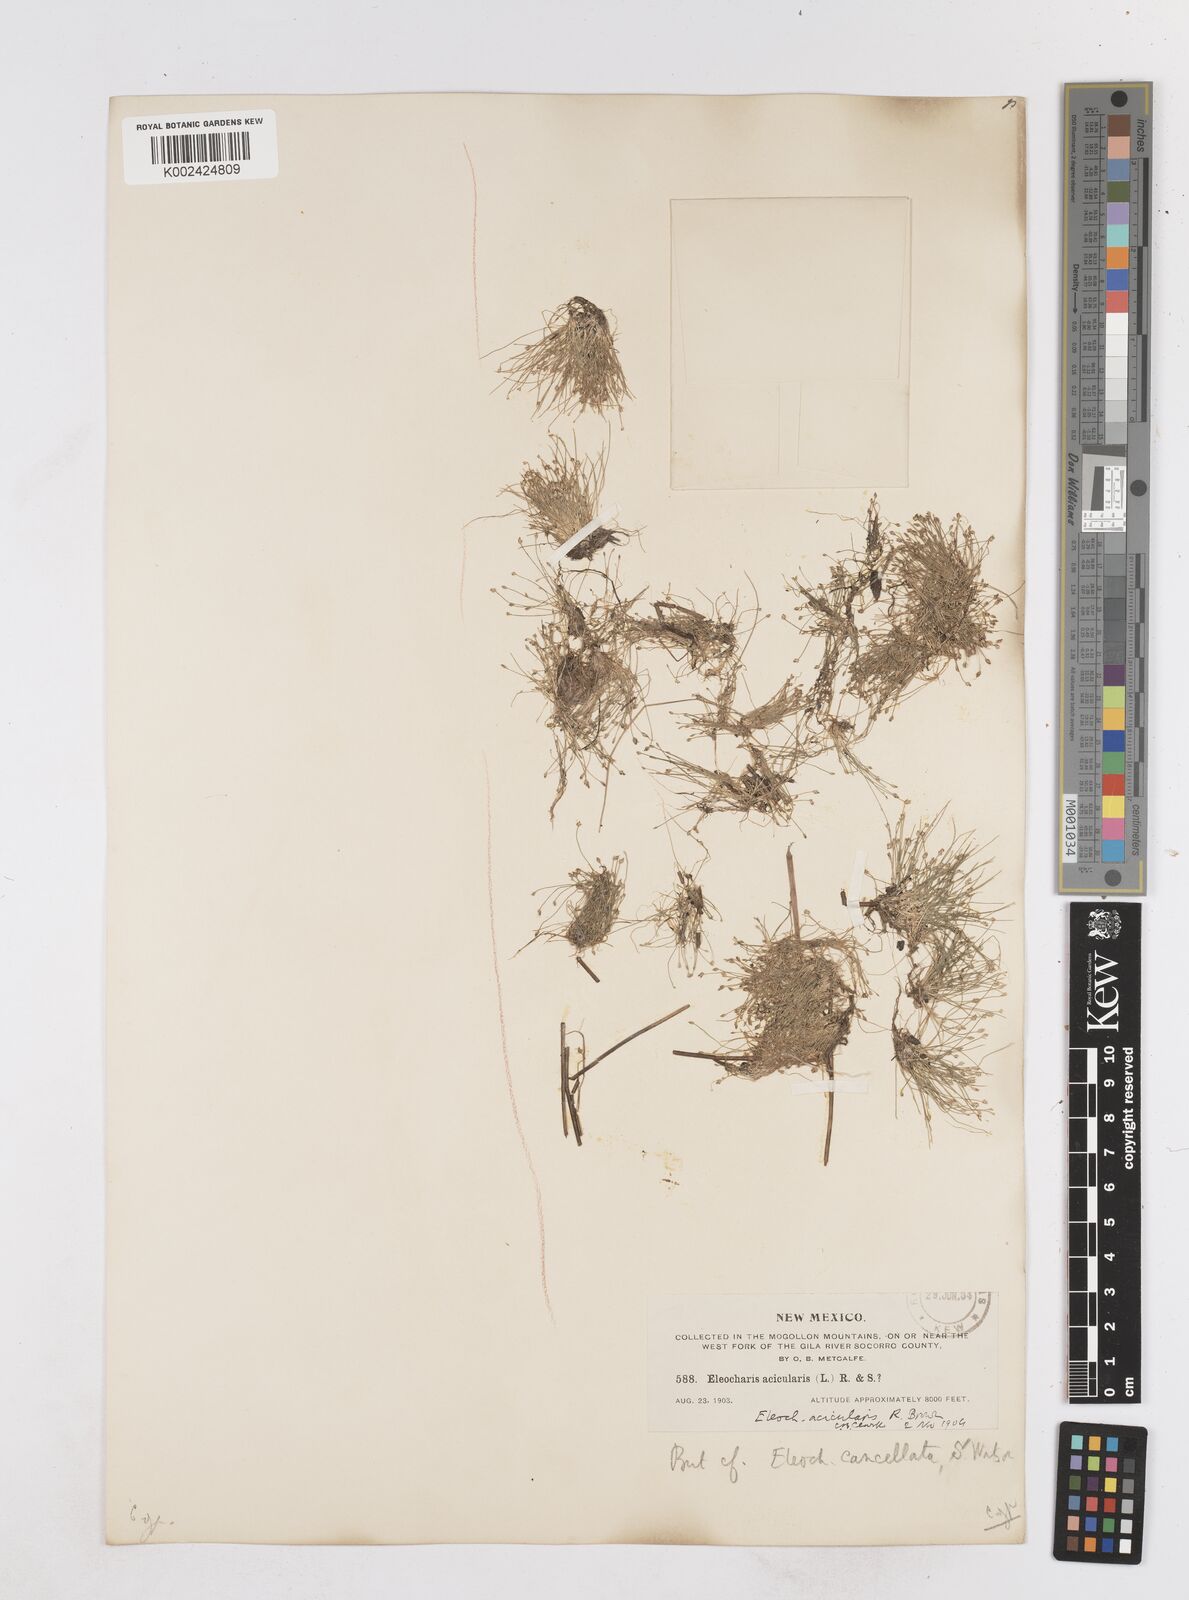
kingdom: Plantae
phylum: Tracheophyta
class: Liliopsida
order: Poales
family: Cyperaceae
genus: Eleocharis
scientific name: Eleocharis acicularis
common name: Needle spike-rush
